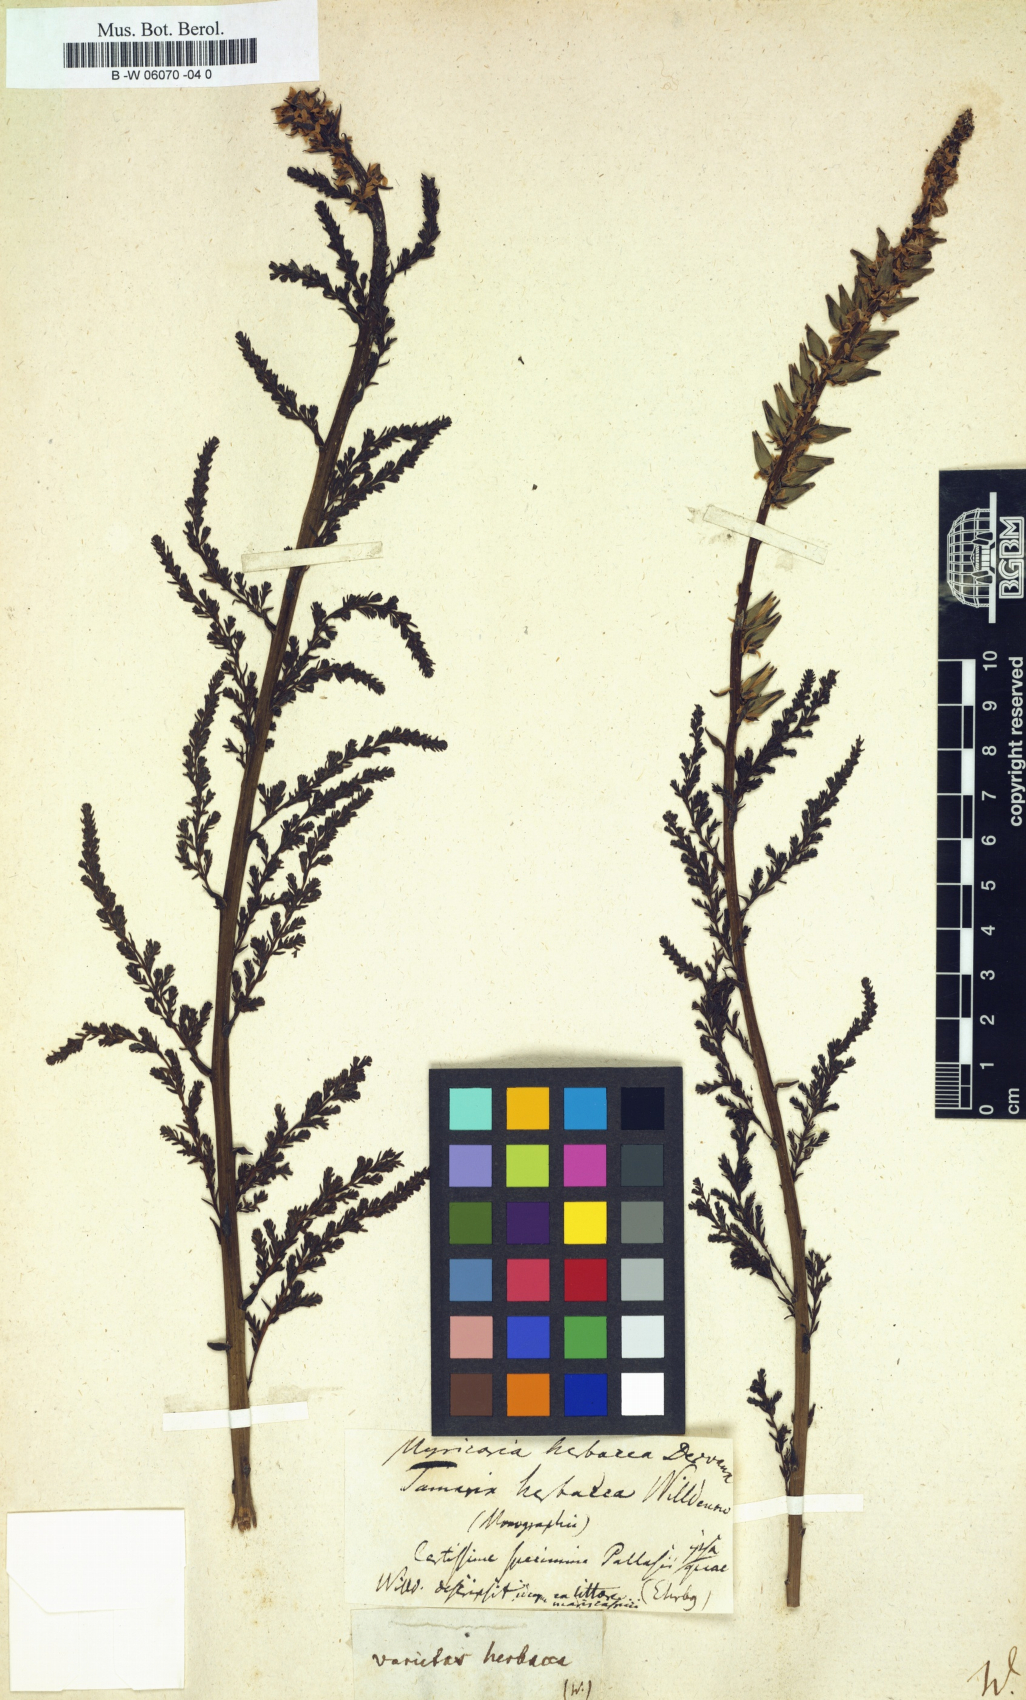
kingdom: Plantae
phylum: Tracheophyta
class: Magnoliopsida
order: Caryophyllales
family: Tamaricaceae
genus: Tamarix
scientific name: Tamarix germanica
